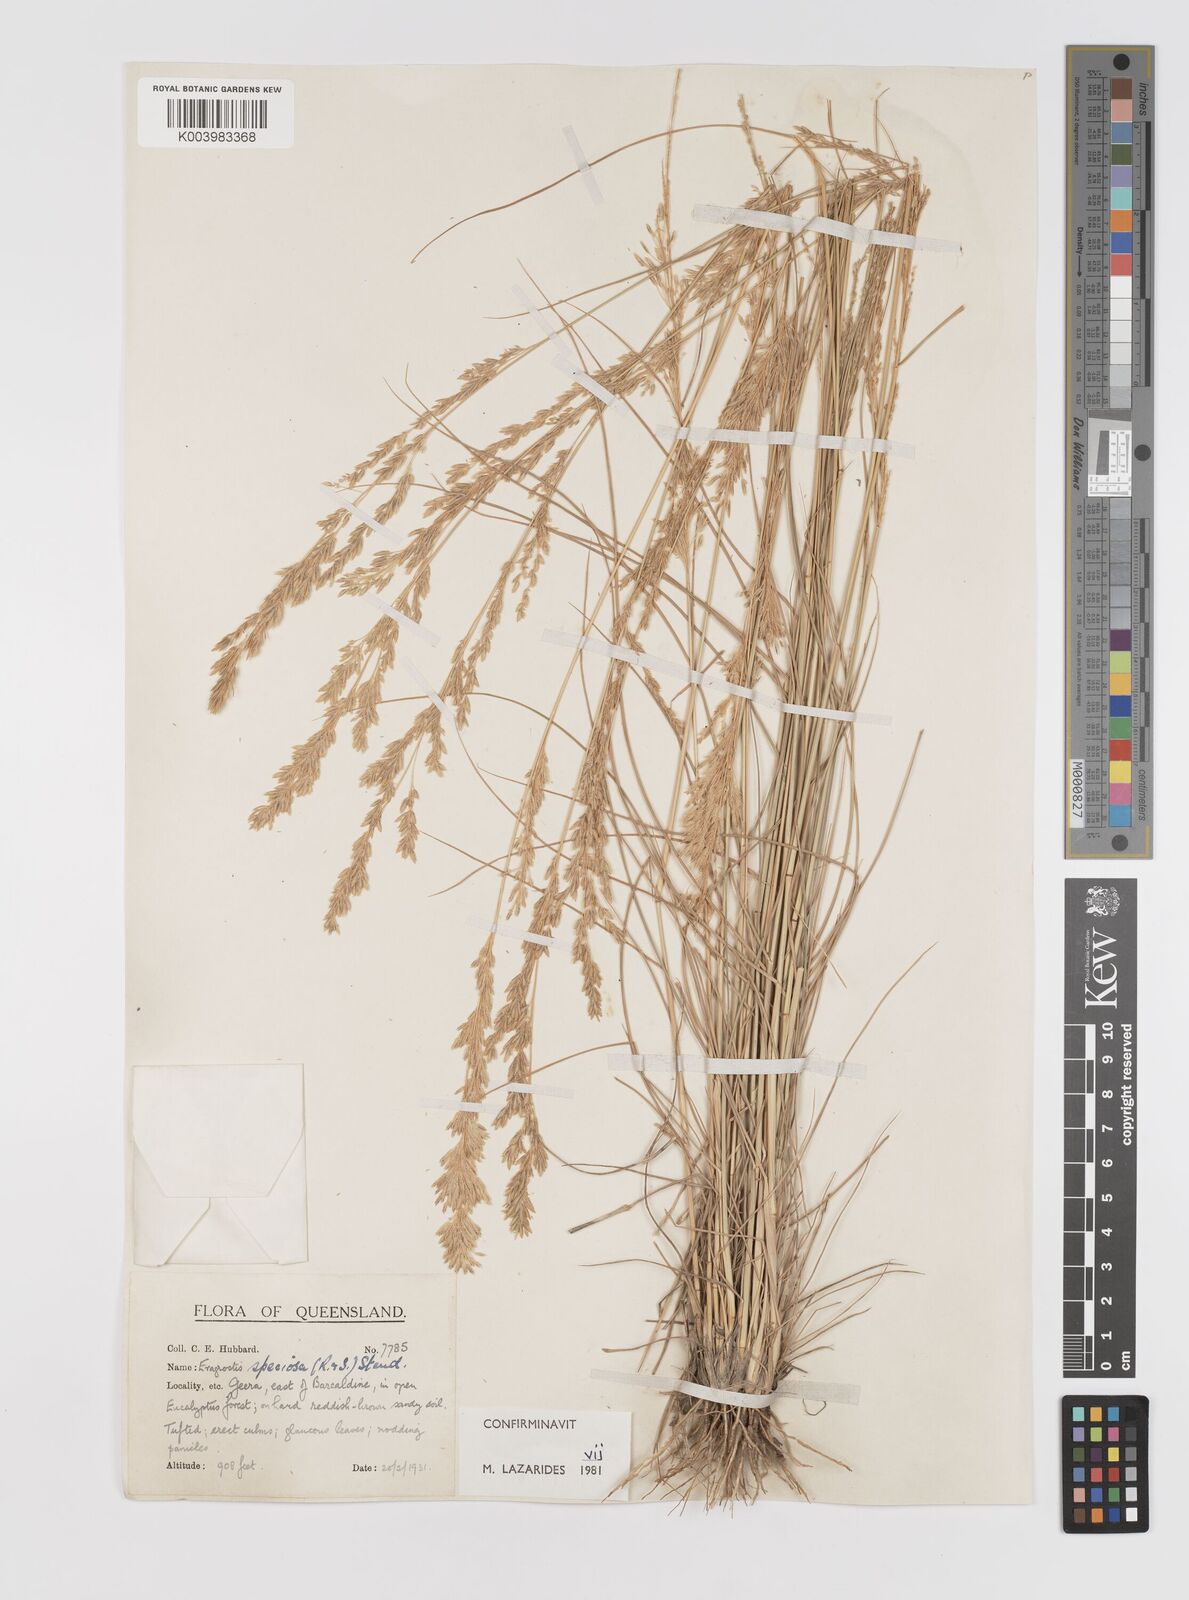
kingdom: Plantae
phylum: Tracheophyta
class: Liliopsida
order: Poales
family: Poaceae
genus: Eragrostis
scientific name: Eragrostis speciosa
